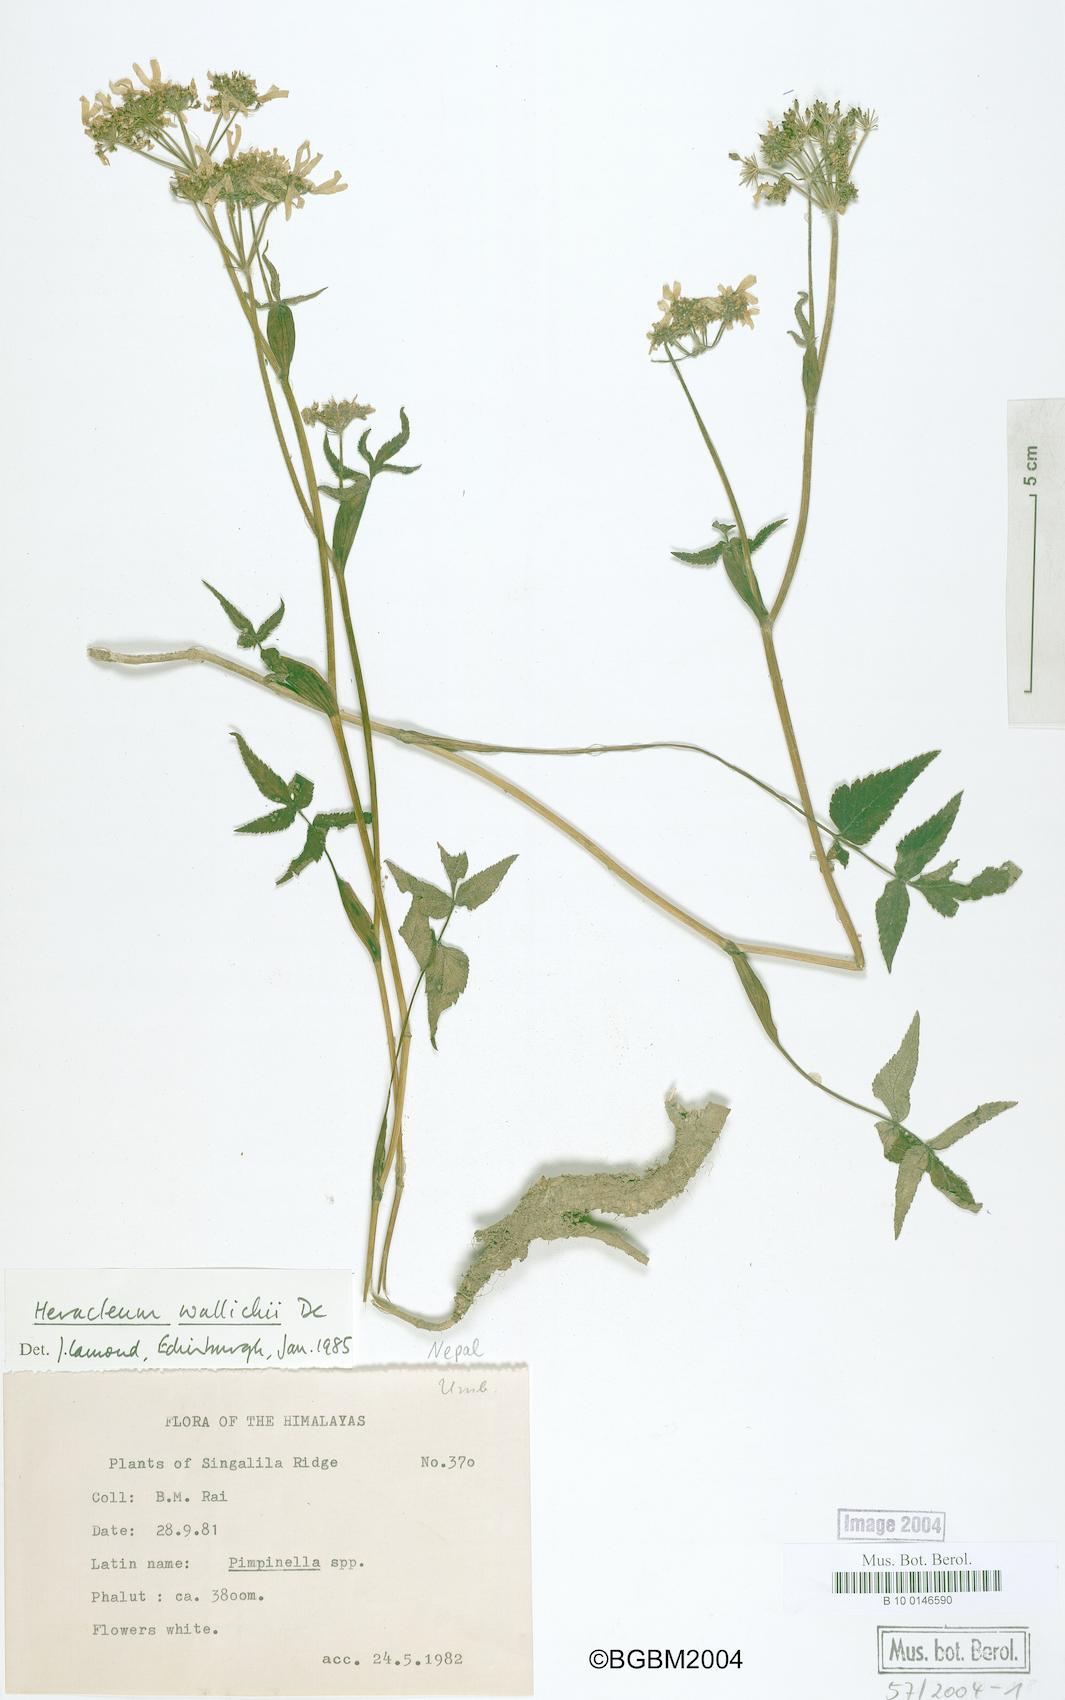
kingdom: Plantae
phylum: Tracheophyta
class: Magnoliopsida
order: Apiales
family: Apiaceae
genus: Tetrataenium
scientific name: Tetrataenium wallichii
